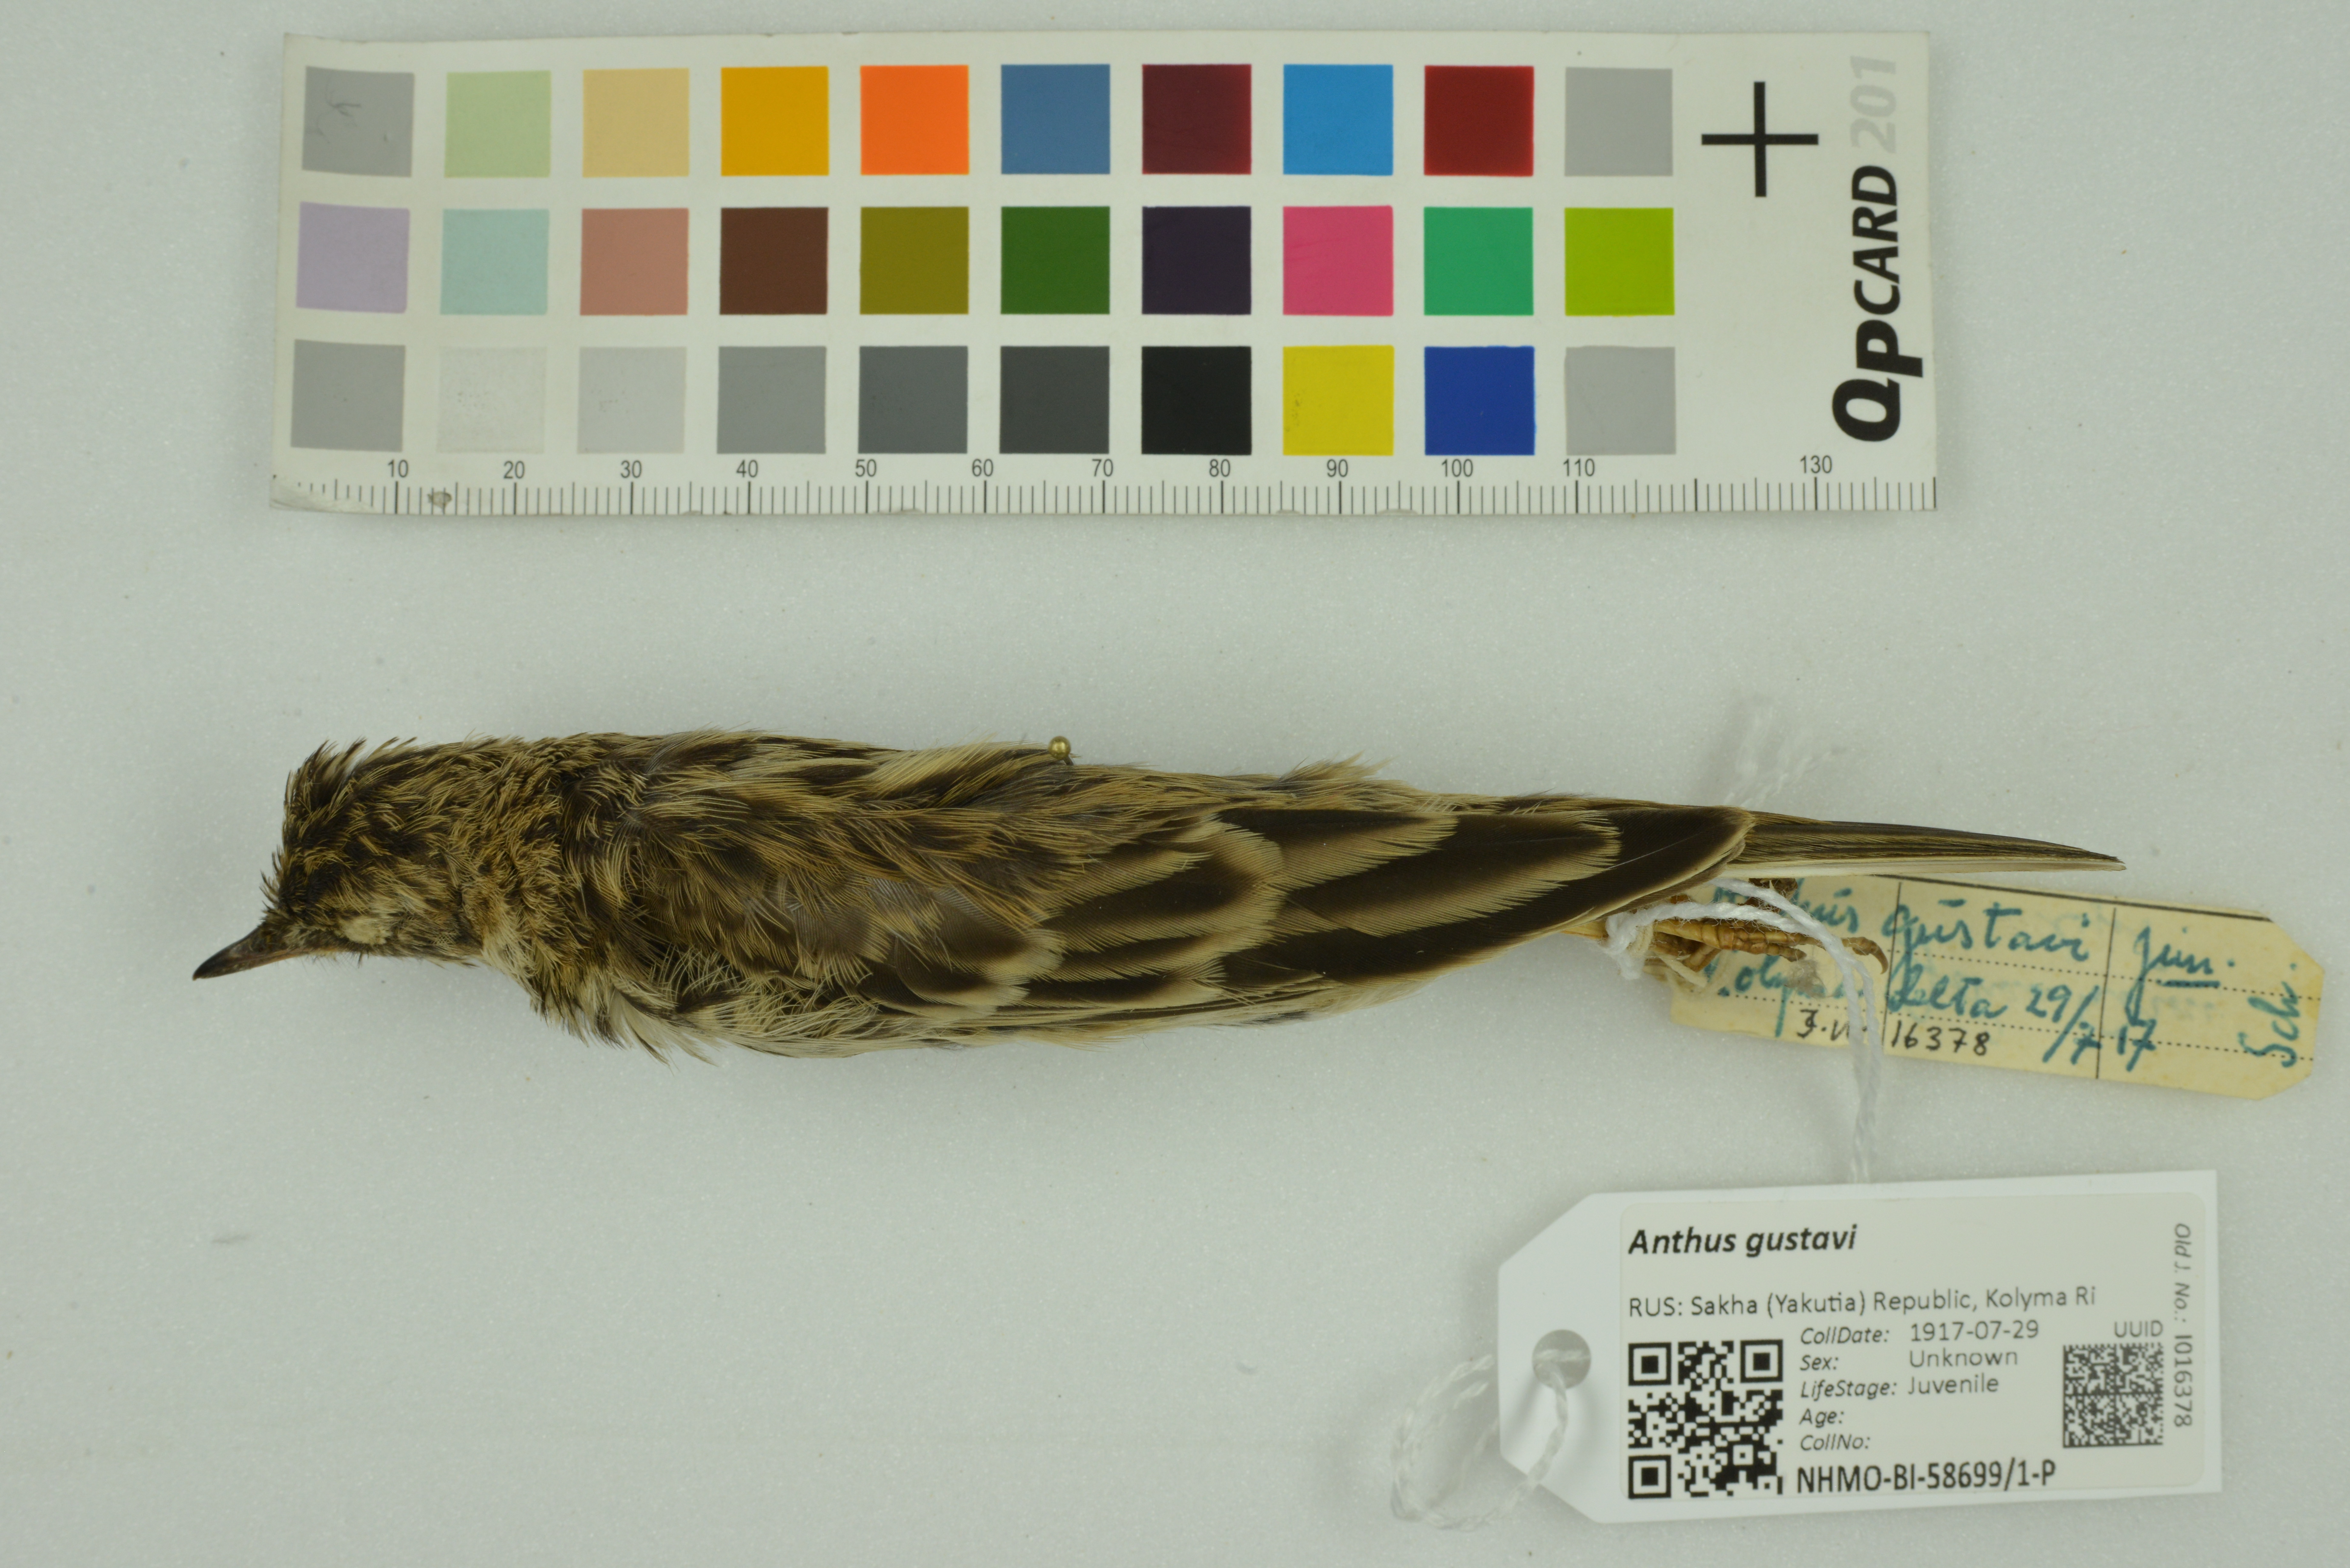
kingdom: Animalia
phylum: Chordata
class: Aves
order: Passeriformes
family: Motacillidae
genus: Anthus
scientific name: Anthus gustavi
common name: Pechora pipit
